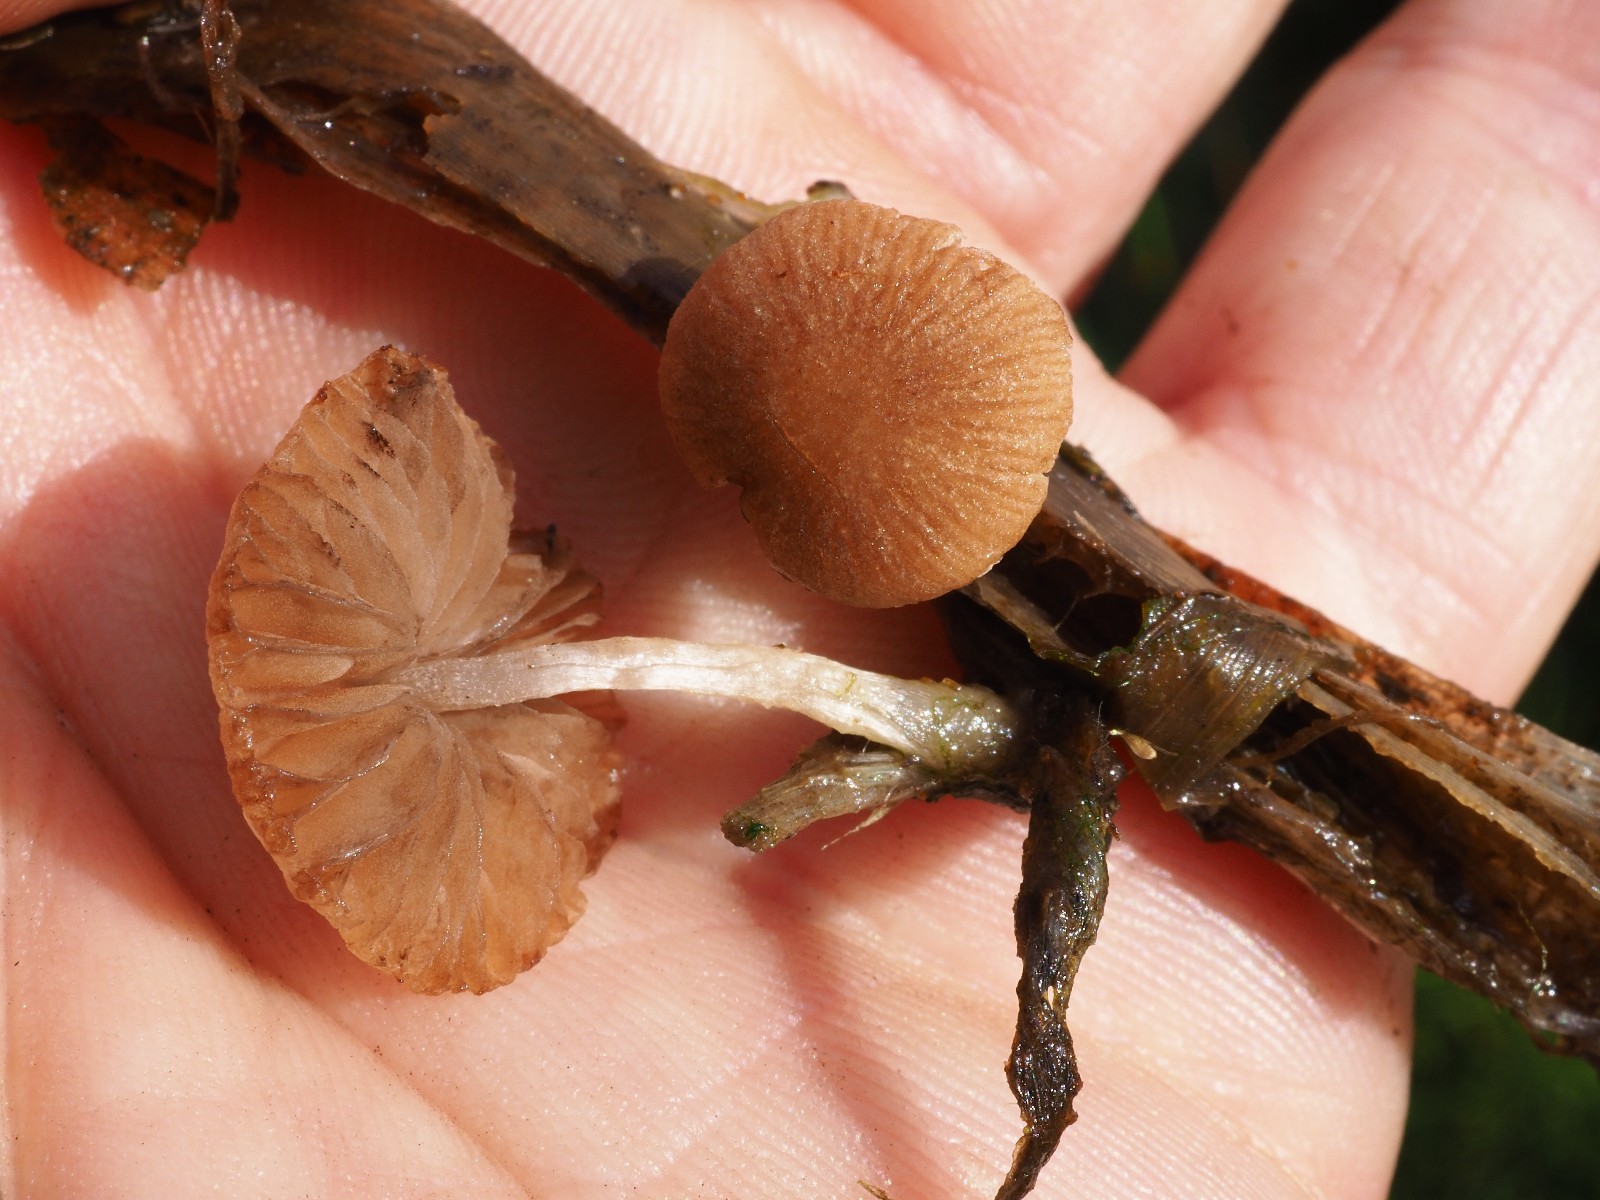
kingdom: Fungi
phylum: Basidiomycota
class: Agaricomycetes
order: Agaricales
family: Psathyrellaceae
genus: Candolleomyces
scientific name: Candolleomyces typhae
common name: dunhammer-mørkhat
